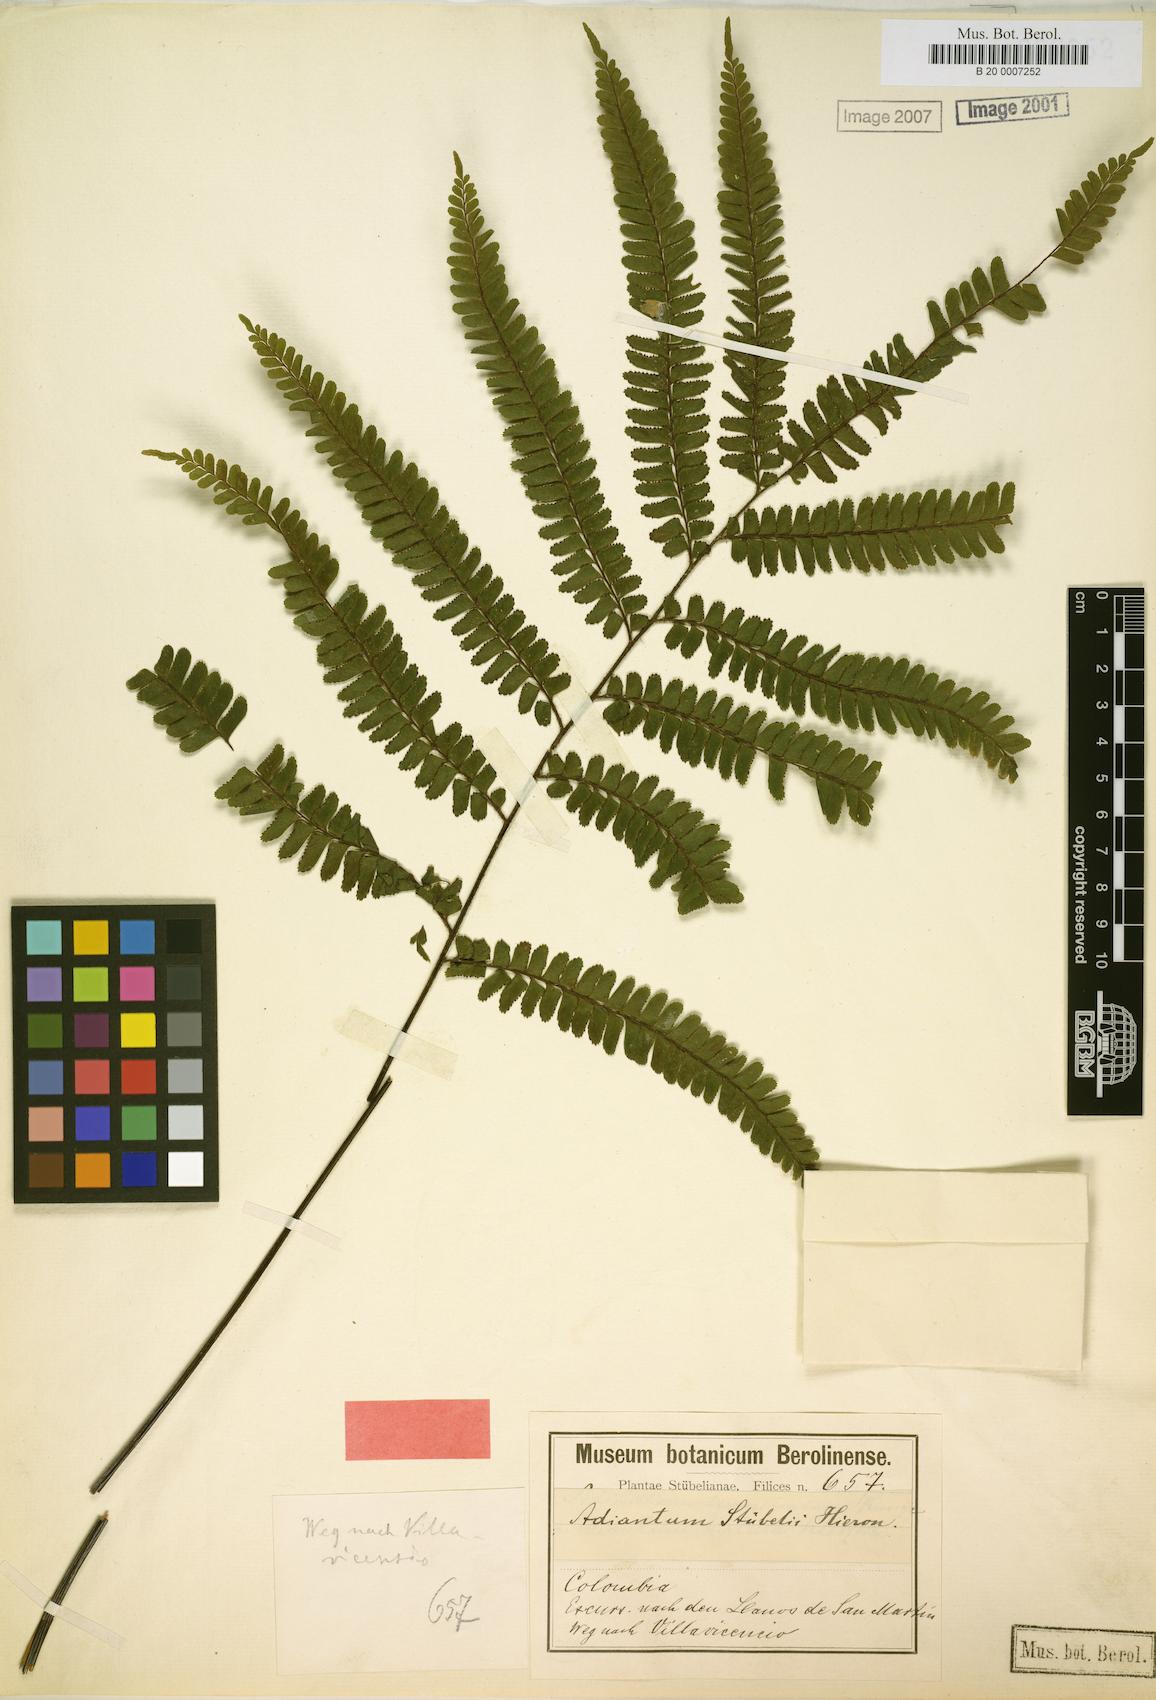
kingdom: Plantae
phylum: Tracheophyta
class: Polypodiopsida
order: Polypodiales
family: Pteridaceae
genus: Adiantum
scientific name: Adiantum stubelii
